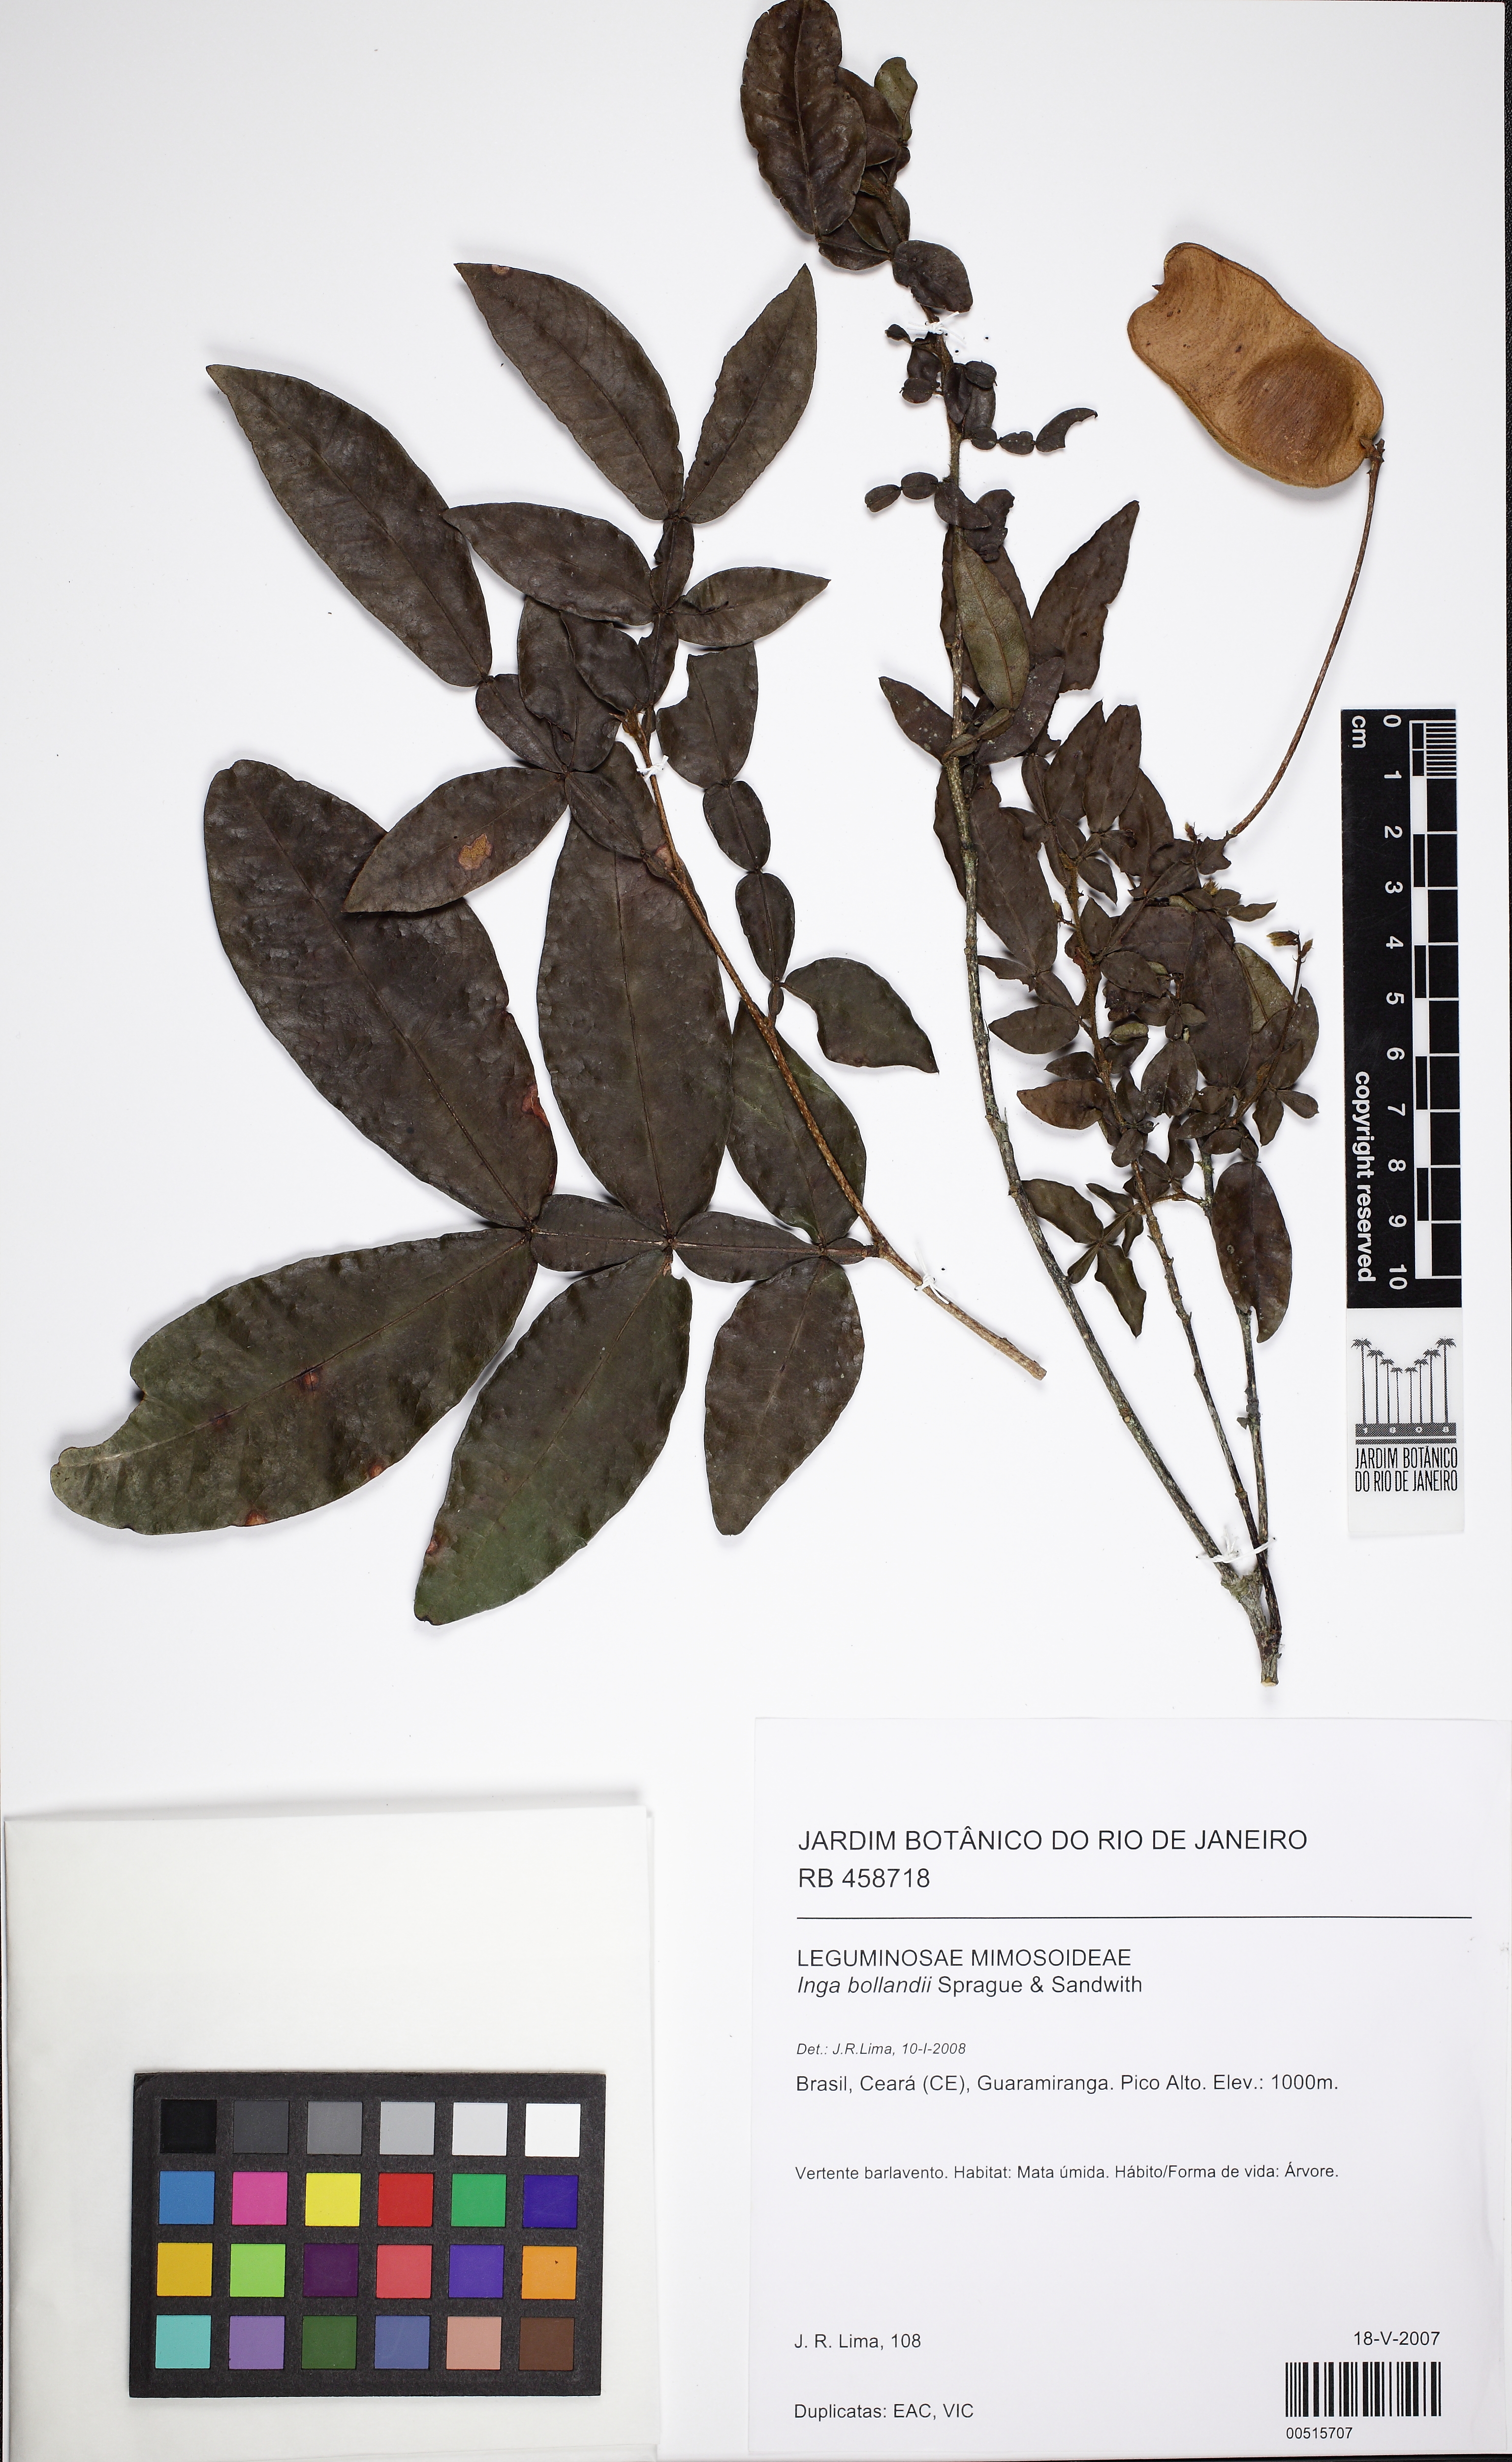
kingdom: Plantae
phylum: Tracheophyta
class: Magnoliopsida
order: Fabales
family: Fabaceae
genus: Inga
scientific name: Inga bollandii
